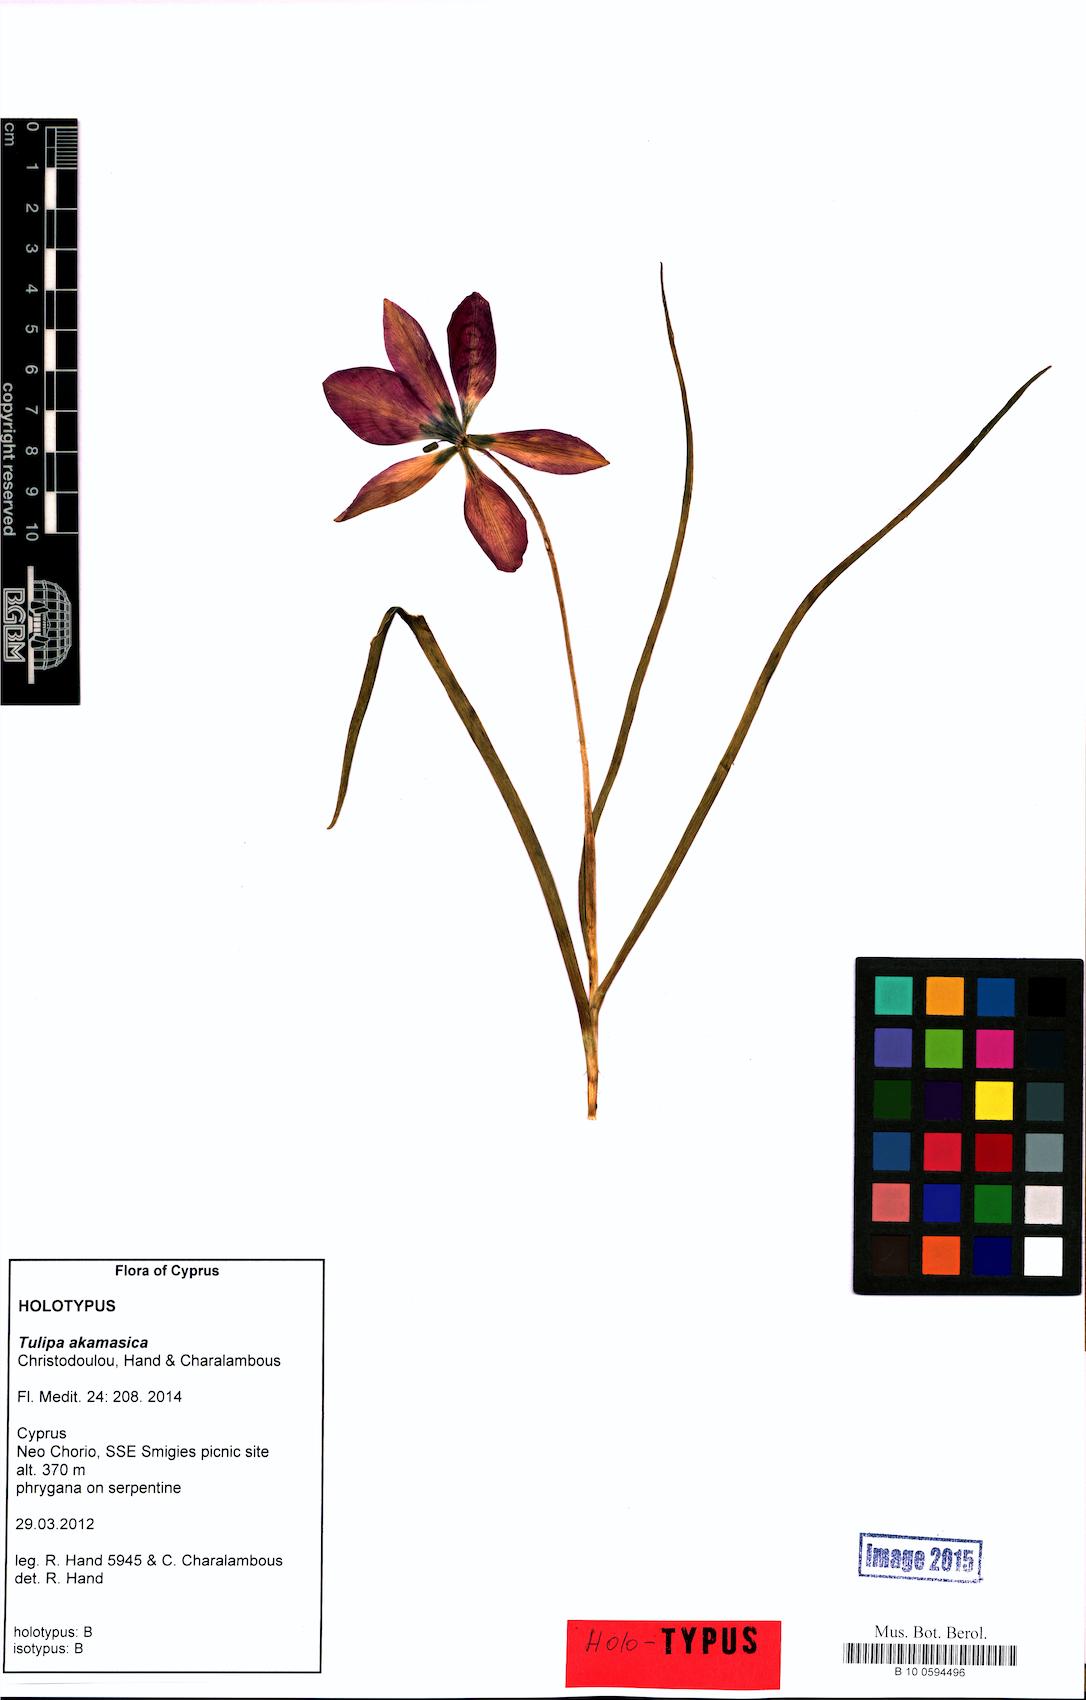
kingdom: Plantae
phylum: Tracheophyta
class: Liliopsida
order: Liliales
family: Liliaceae
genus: Tulipa
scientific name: Tulipa akamasica
